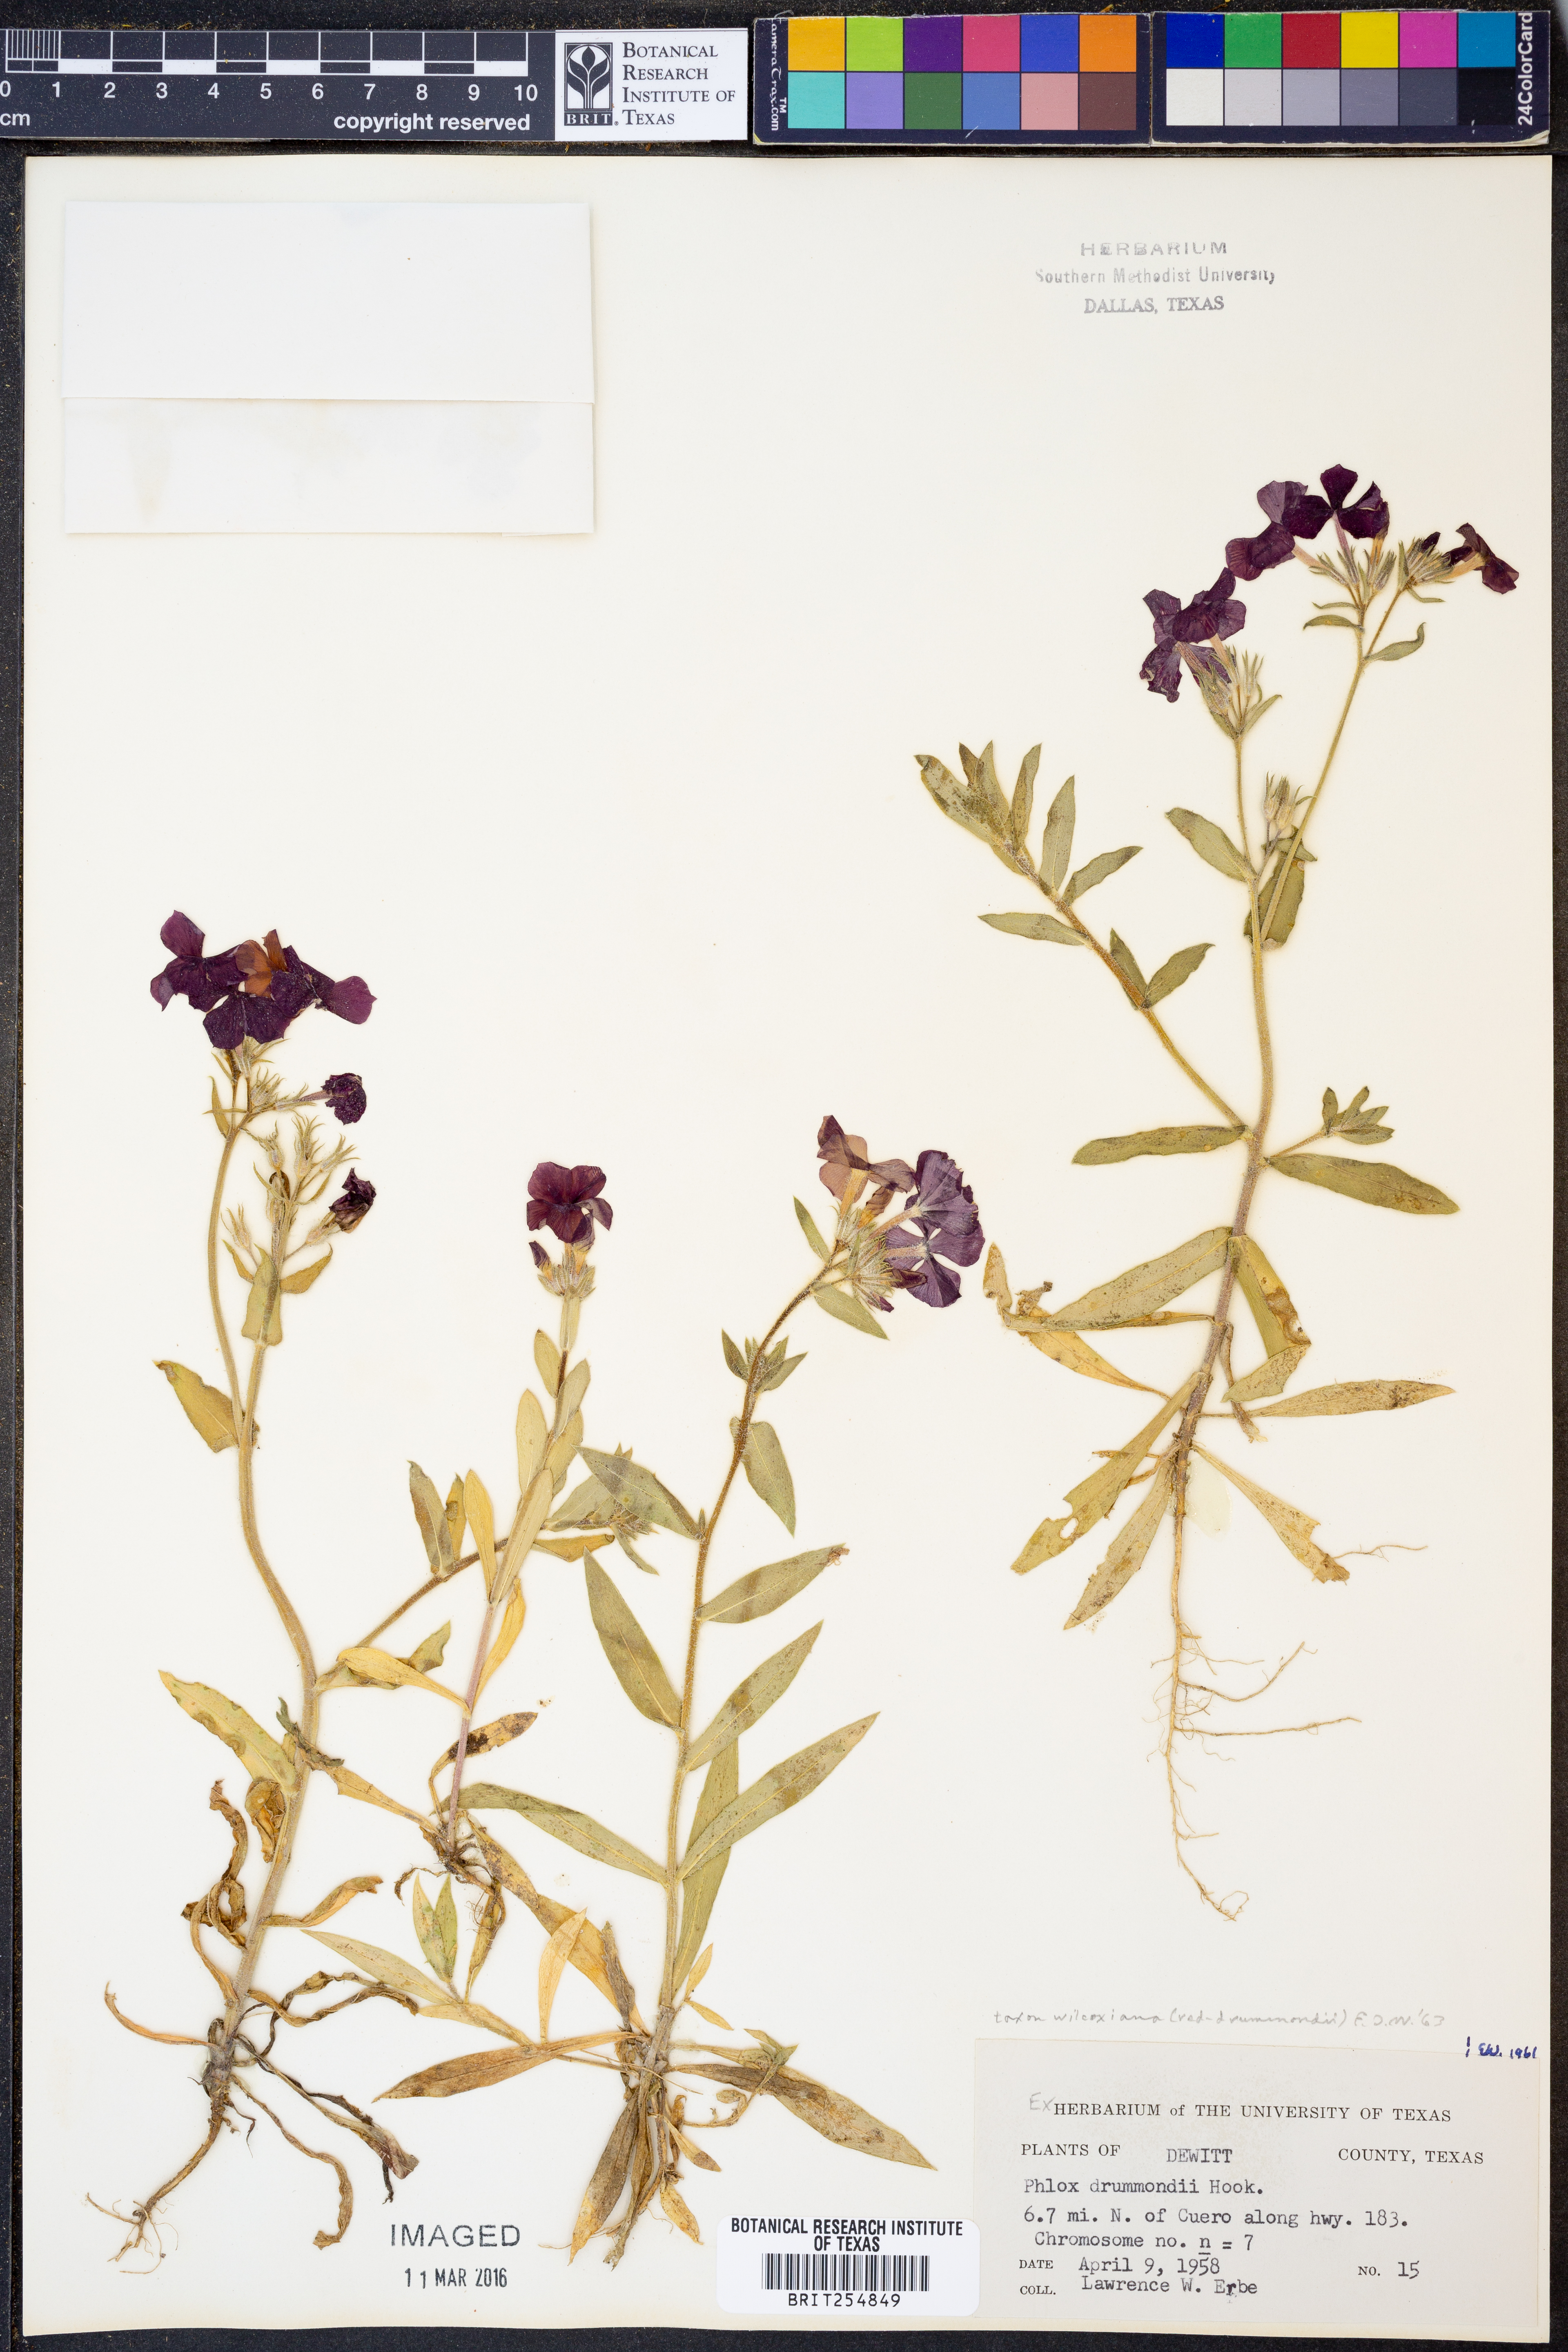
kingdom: Plantae
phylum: Tracheophyta
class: Magnoliopsida
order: Ericales
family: Polemoniaceae
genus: Phlox
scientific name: Phlox drummondii
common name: Drummond's phlox
